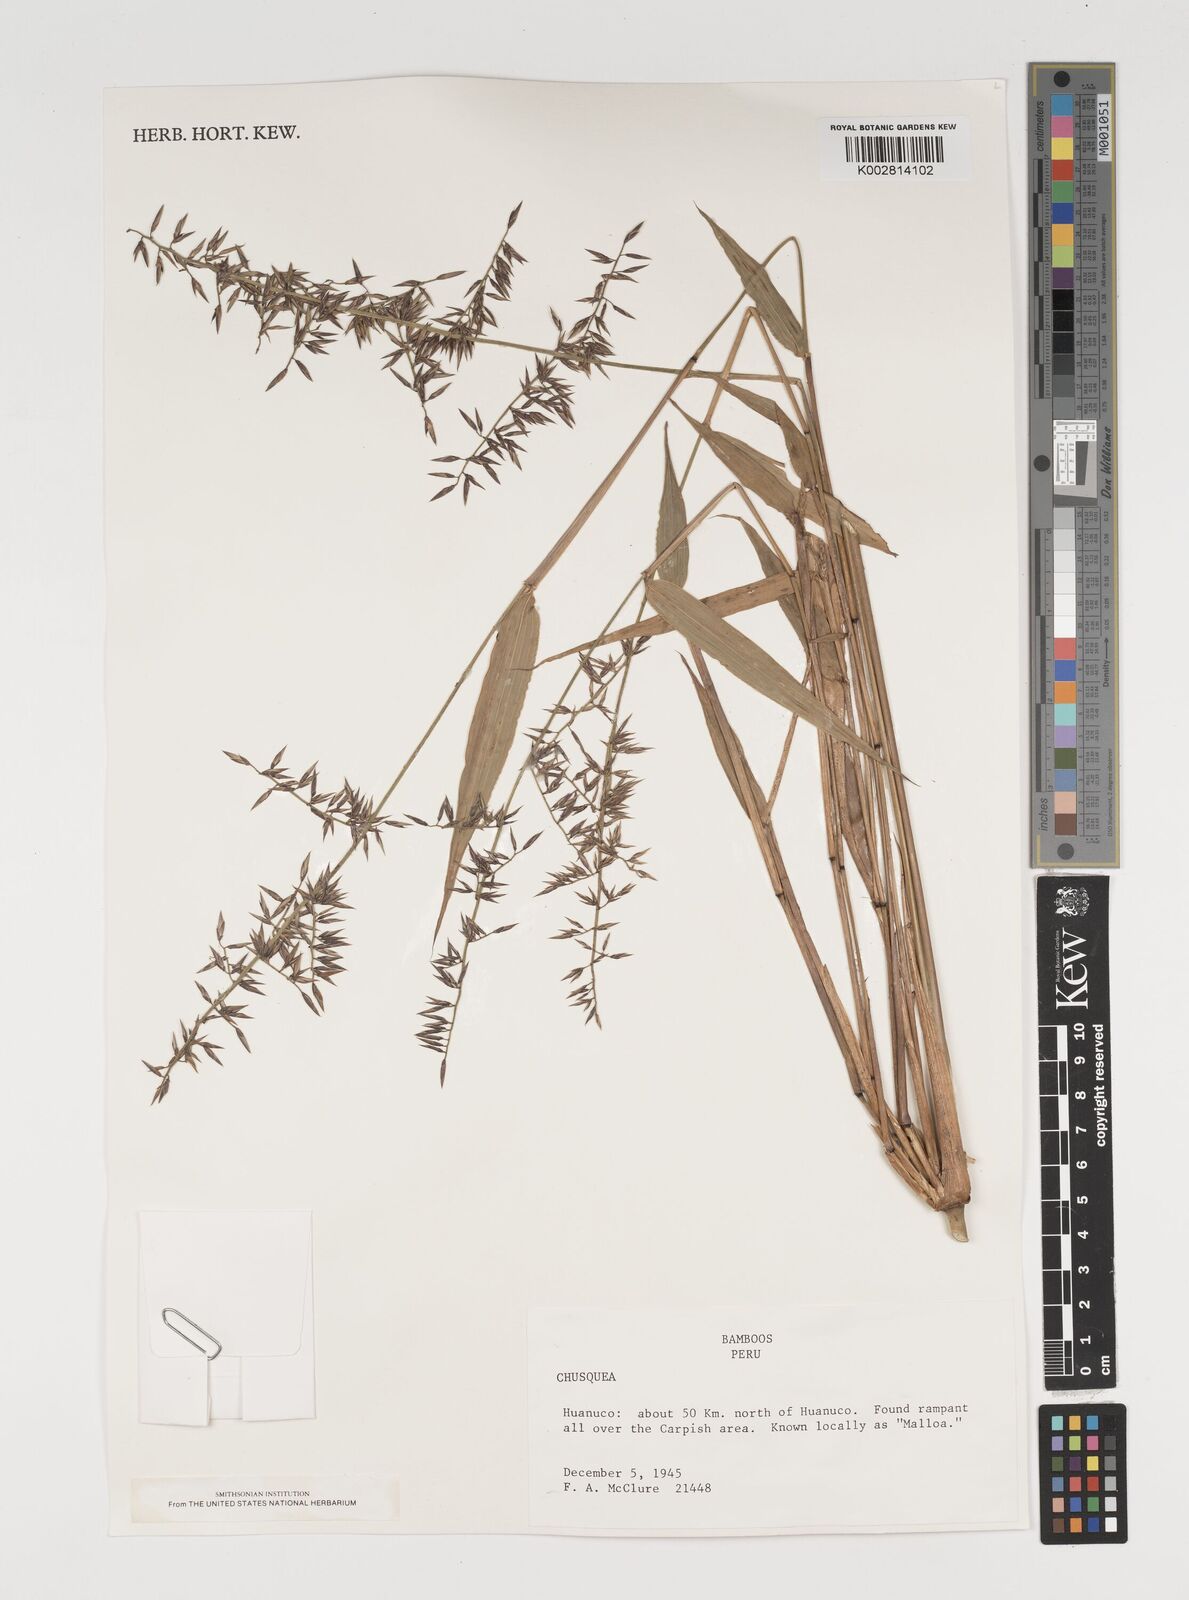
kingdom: Plantae
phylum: Tracheophyta
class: Liliopsida
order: Poales
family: Poaceae
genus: Chusquea
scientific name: Chusquea
